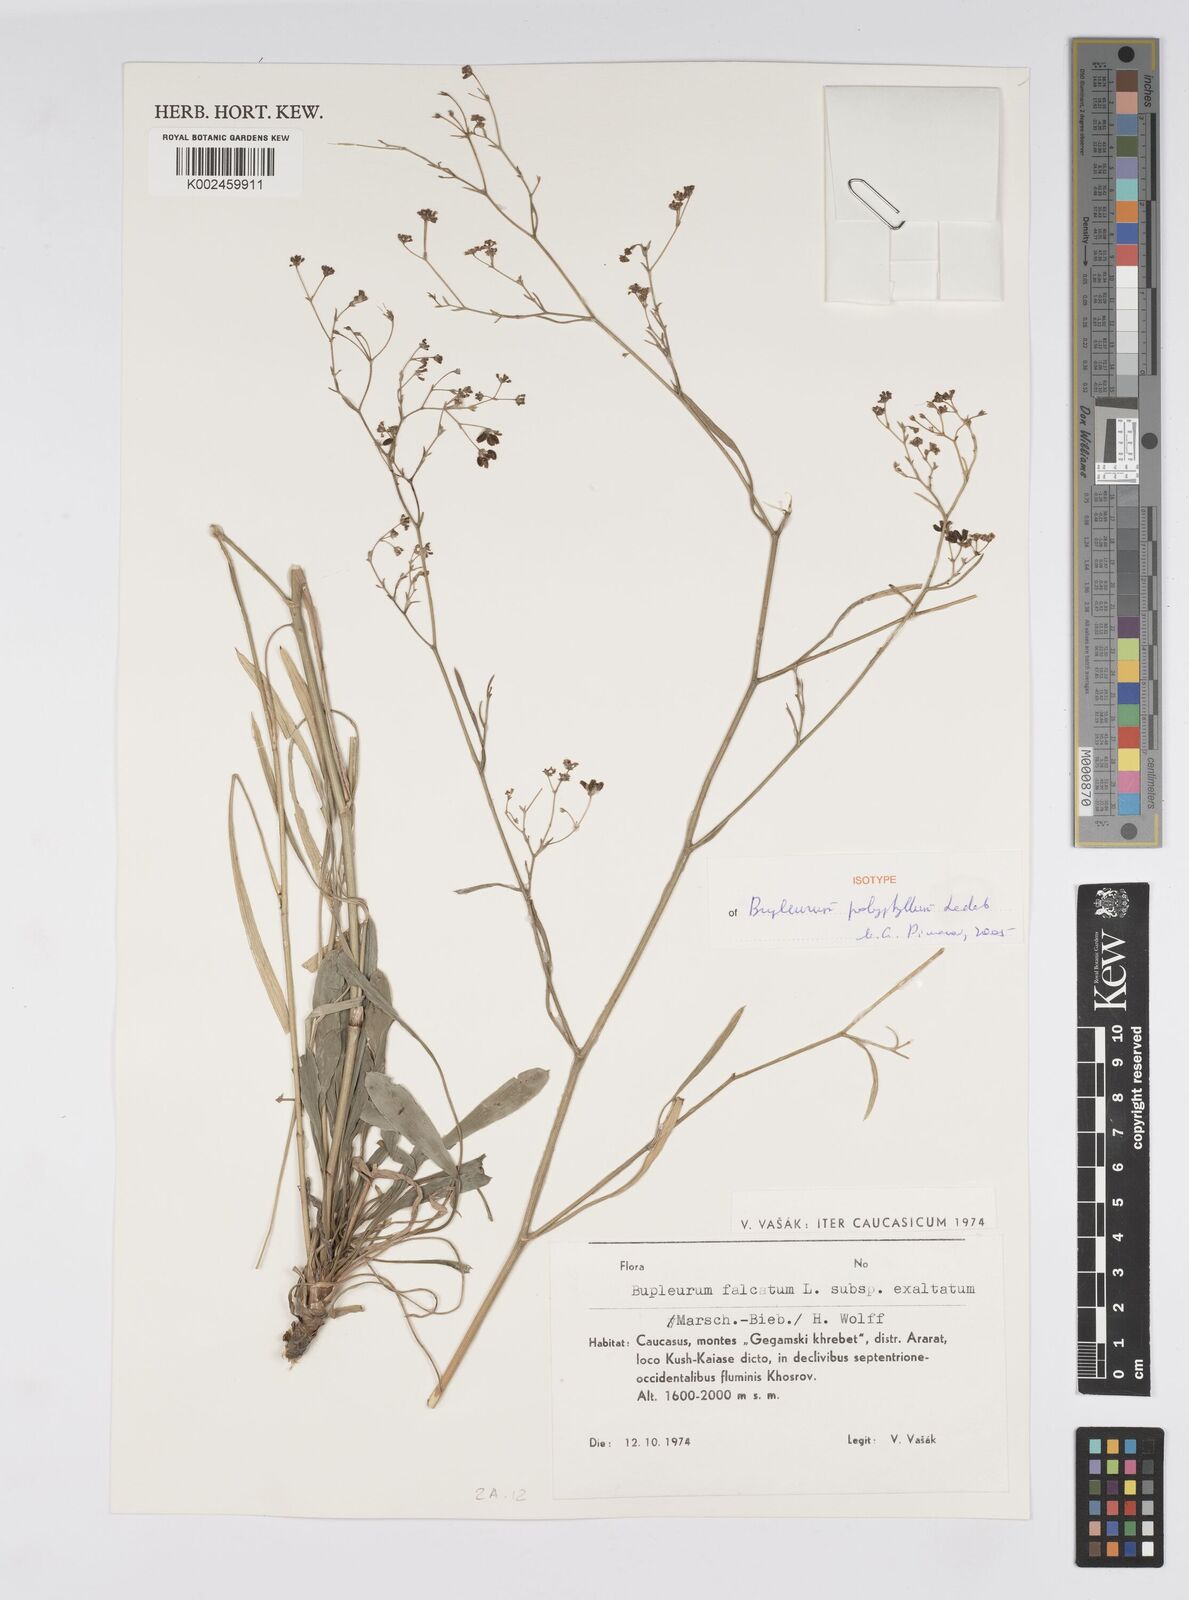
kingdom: Plantae
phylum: Tracheophyta
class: Magnoliopsida
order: Apiales
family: Apiaceae
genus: Bupleurum
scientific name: Bupleurum falcatum
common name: Sickle-leaved hare's-ear
